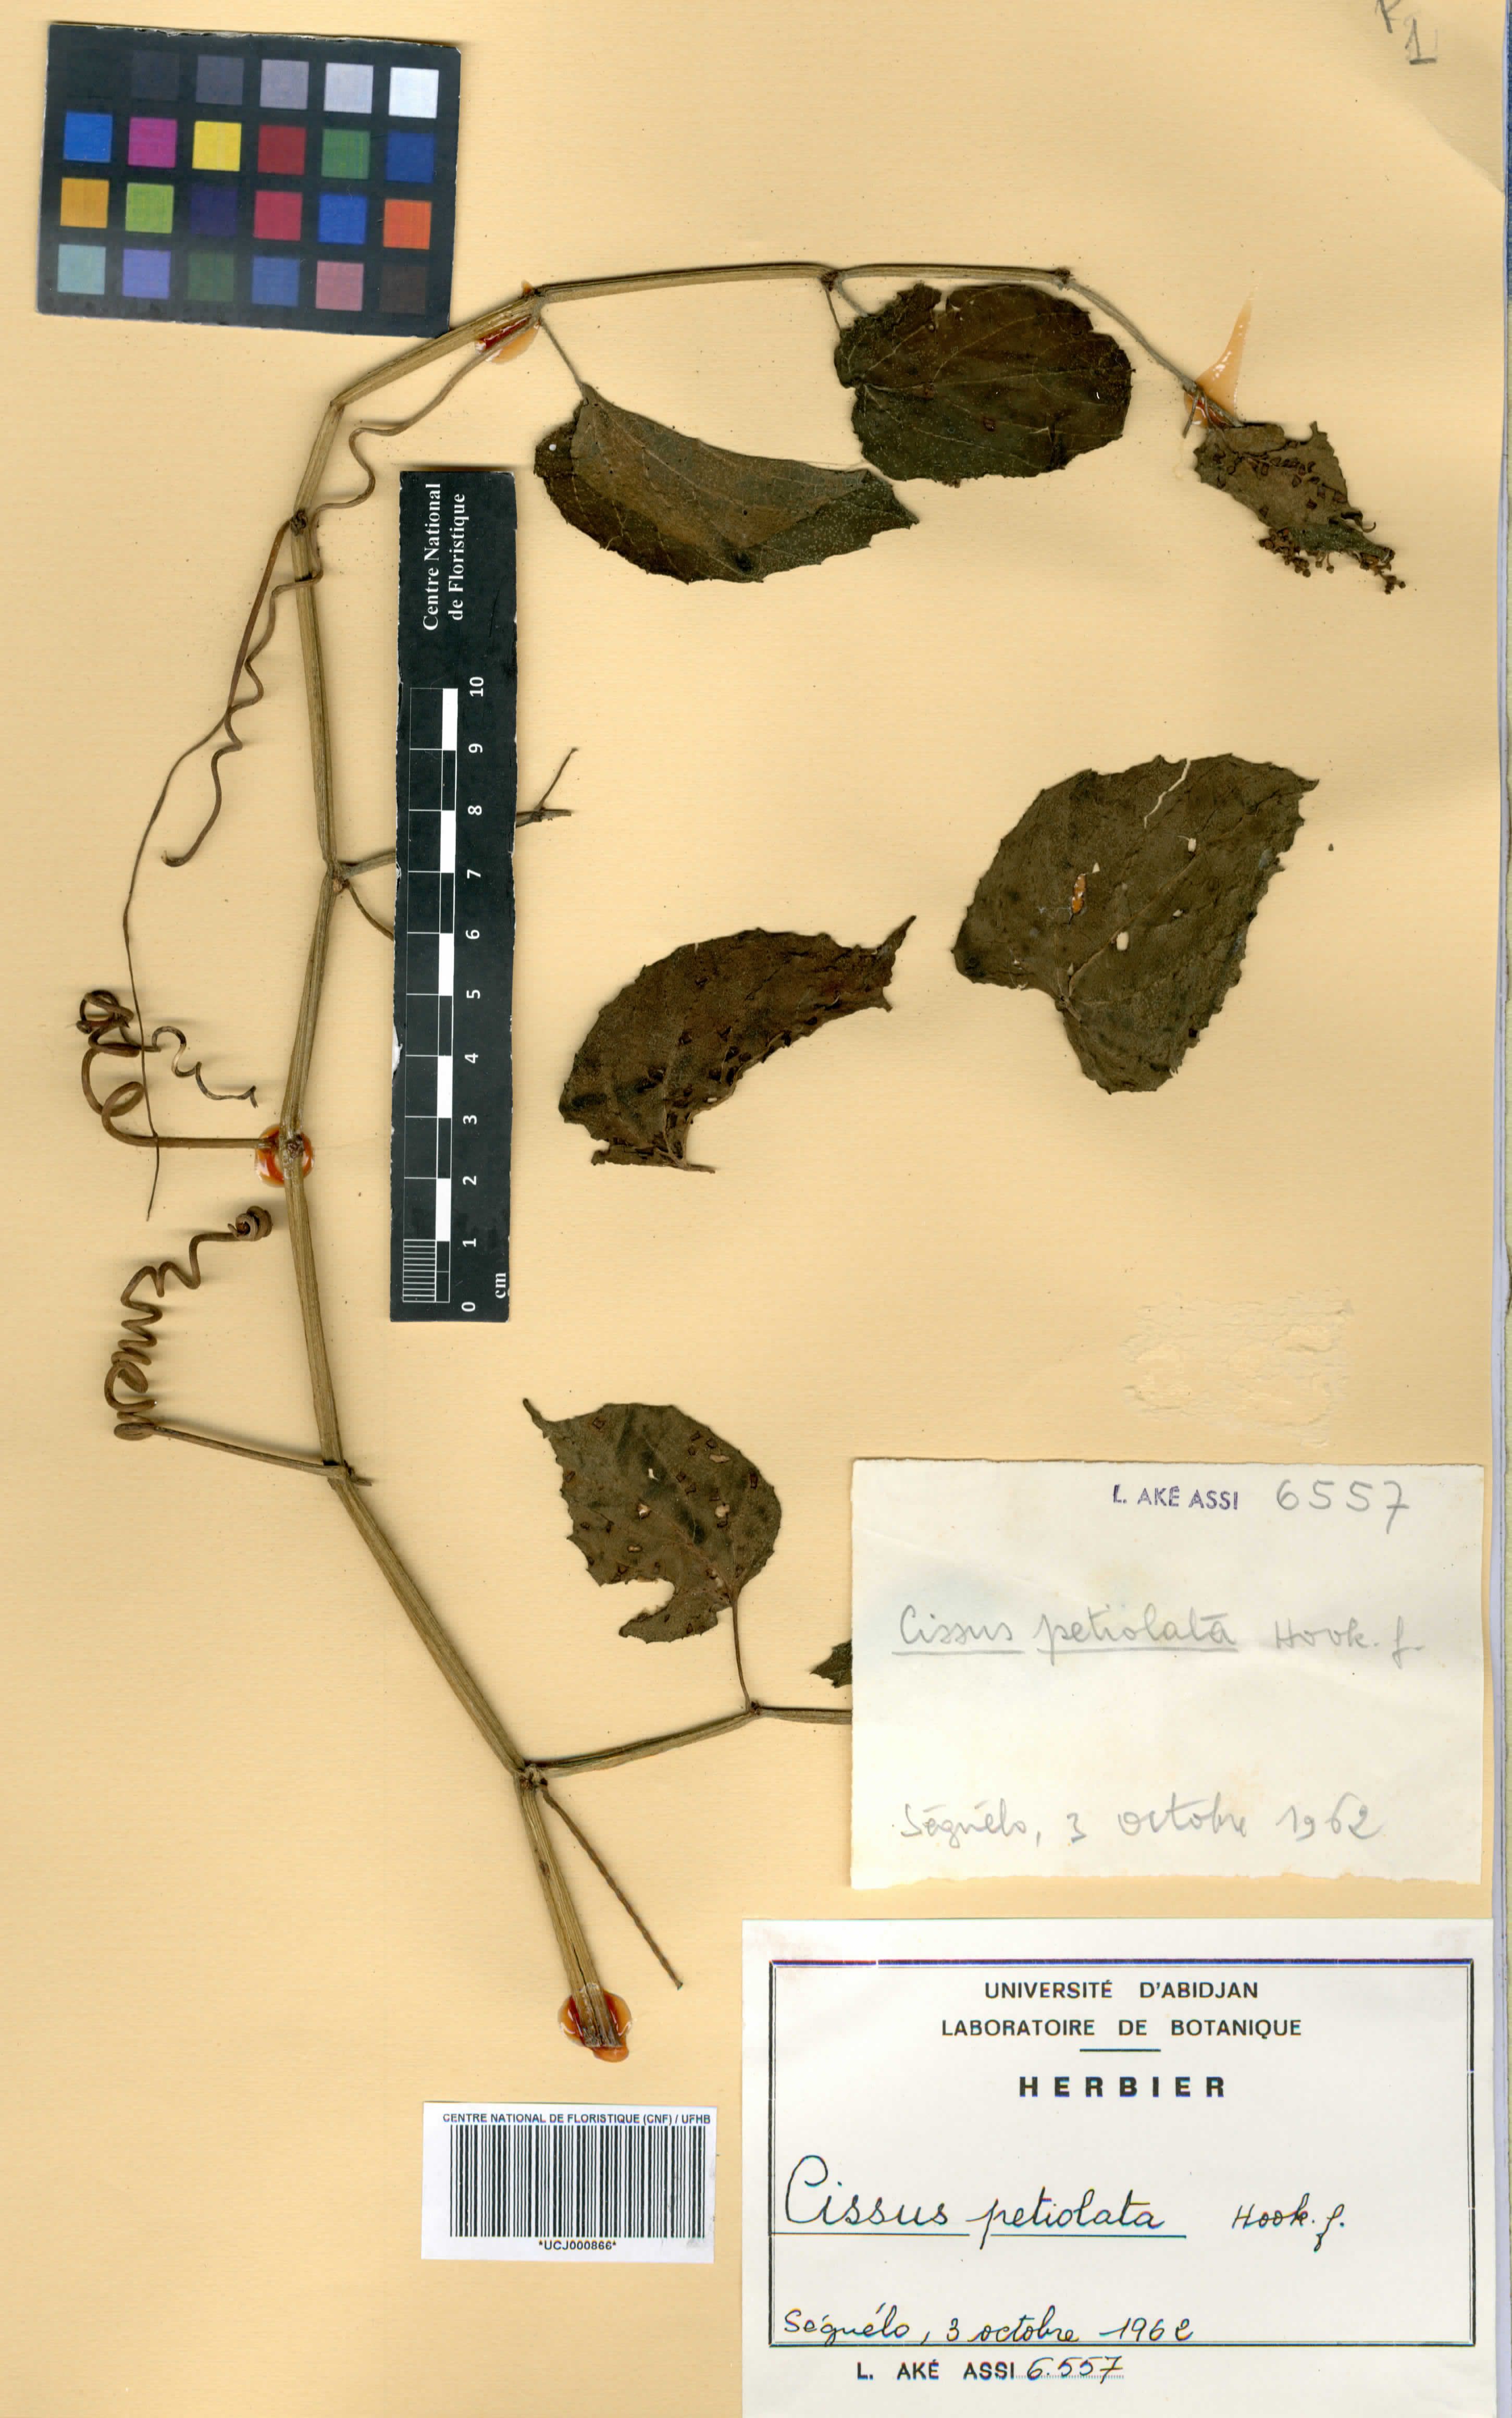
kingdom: Plantae
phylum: Tracheophyta
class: Magnoliopsida
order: Vitales
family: Vitaceae
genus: Cissus
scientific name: Cissus petiolata
